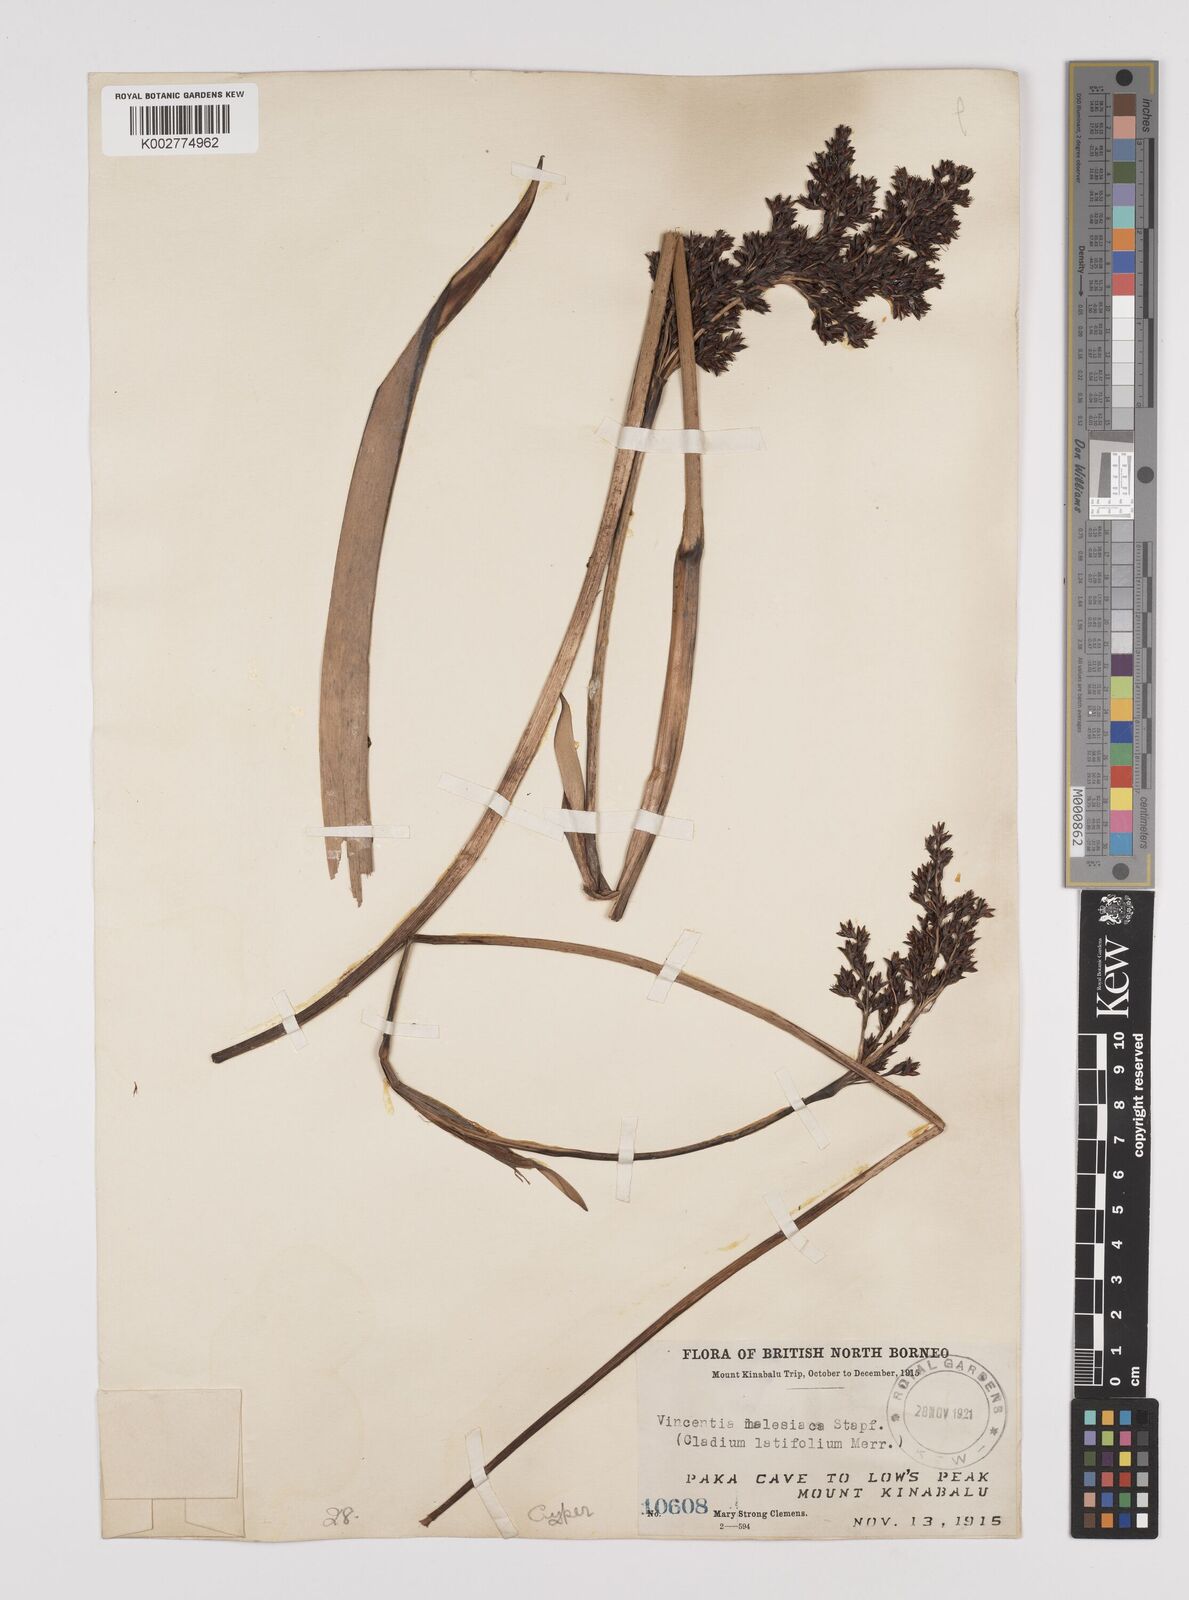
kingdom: Plantae
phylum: Tracheophyta
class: Liliopsida
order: Poales
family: Cyperaceae
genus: Machaerina
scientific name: Machaerina falcata
